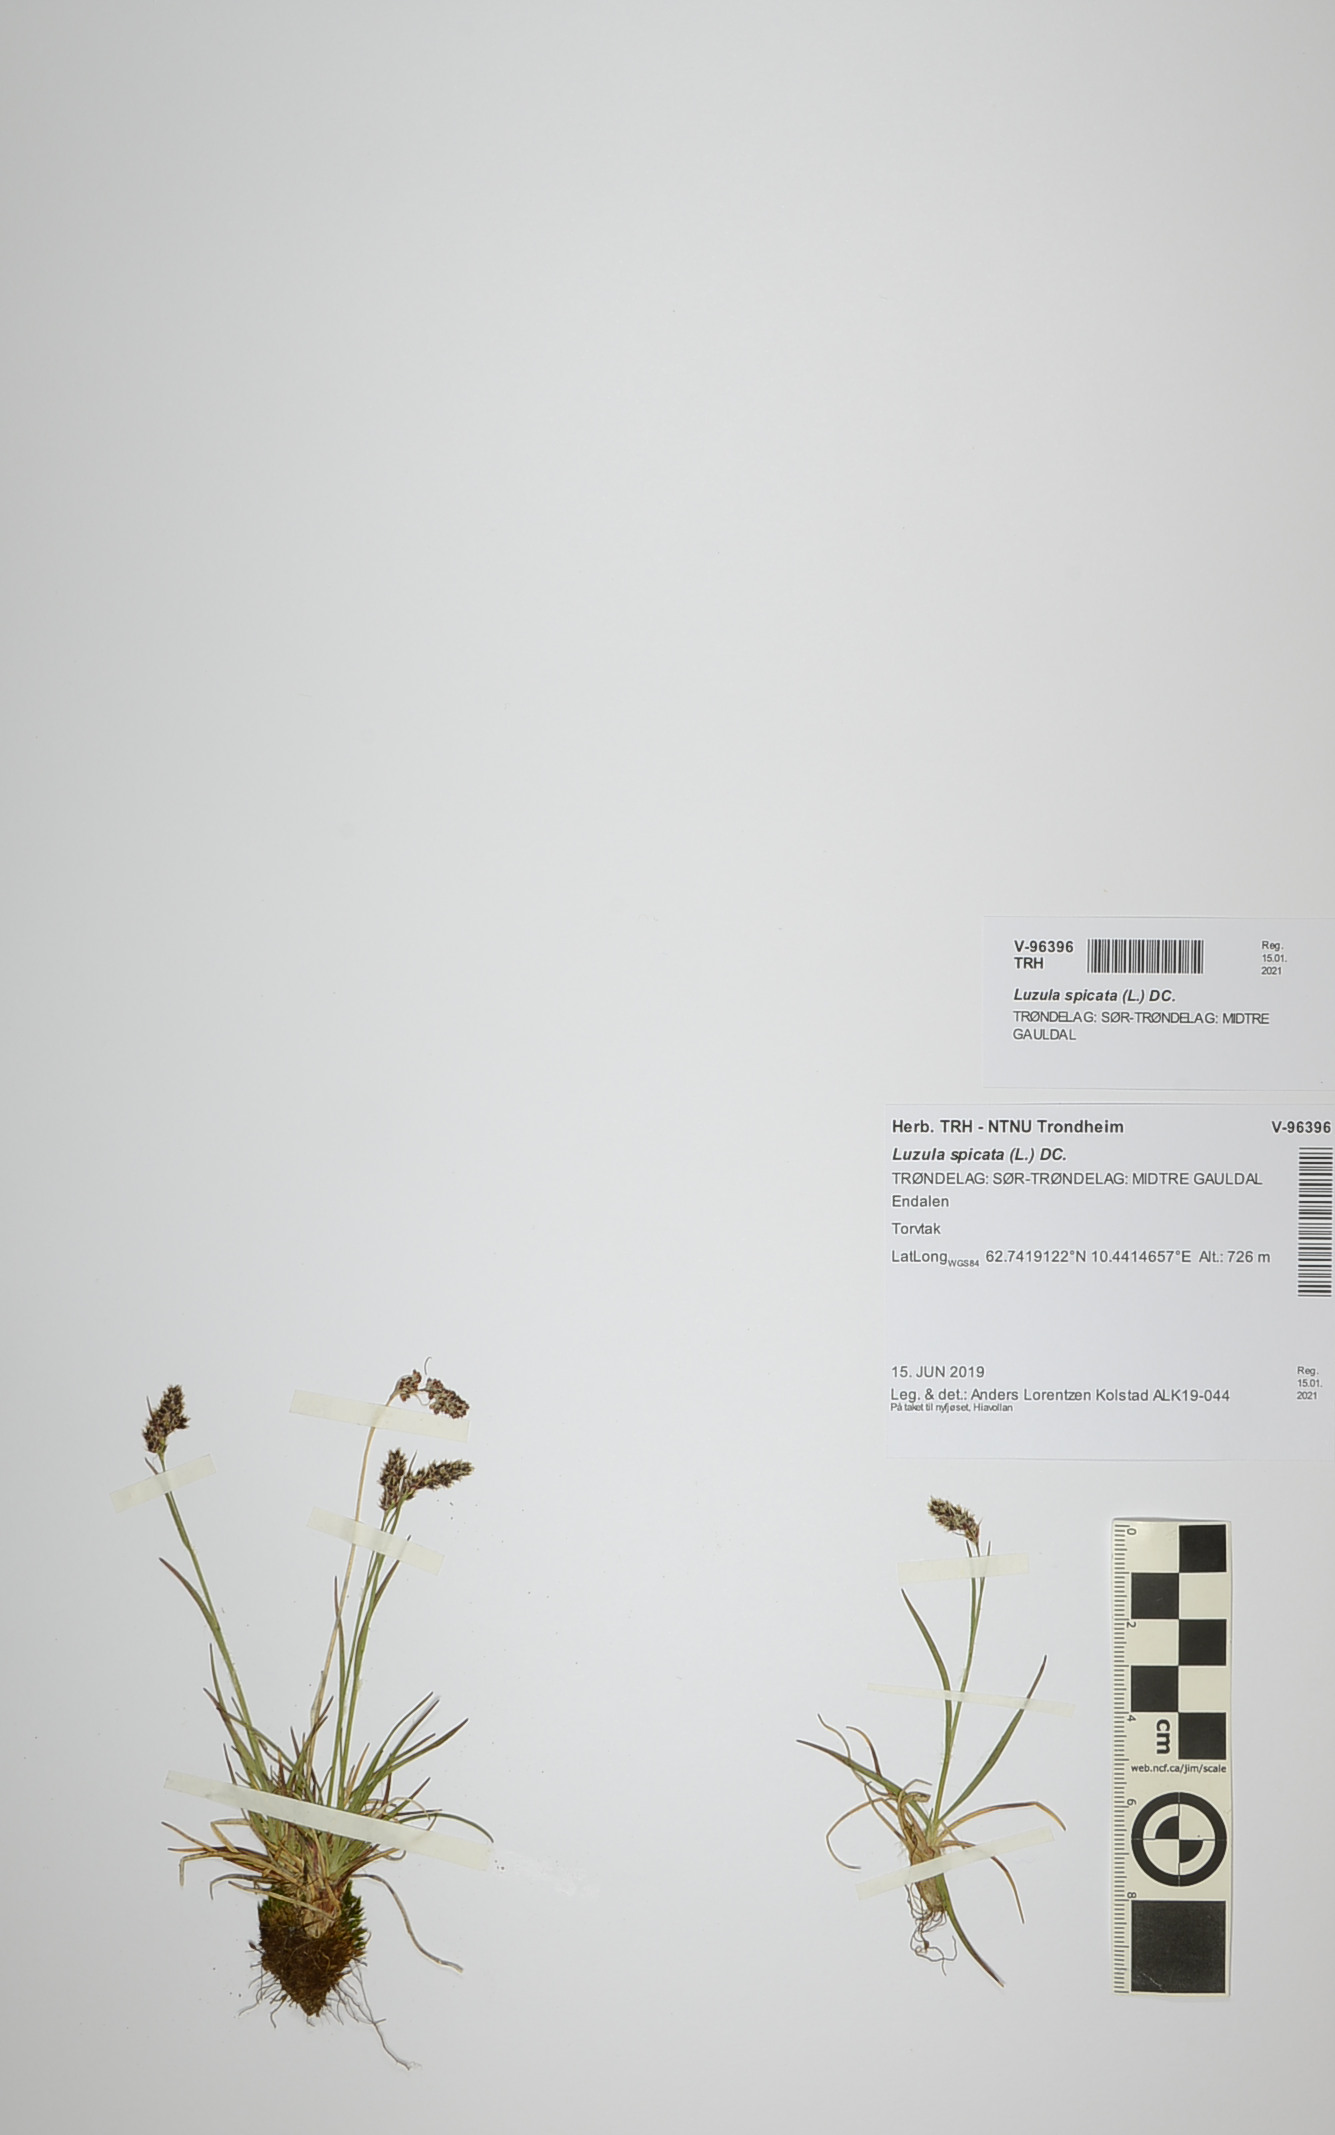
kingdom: Plantae
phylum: Tracheophyta
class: Liliopsida
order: Poales
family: Juncaceae
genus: Luzula
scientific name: Luzula spicata
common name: Spiked wood-rush
